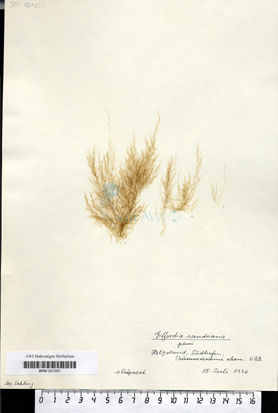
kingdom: Chromista
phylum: Ochrophyta
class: Phaeophyceae
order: Ectocarpales
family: Acinetosporaceae
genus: Hincksia
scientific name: Hincksia sandriana
